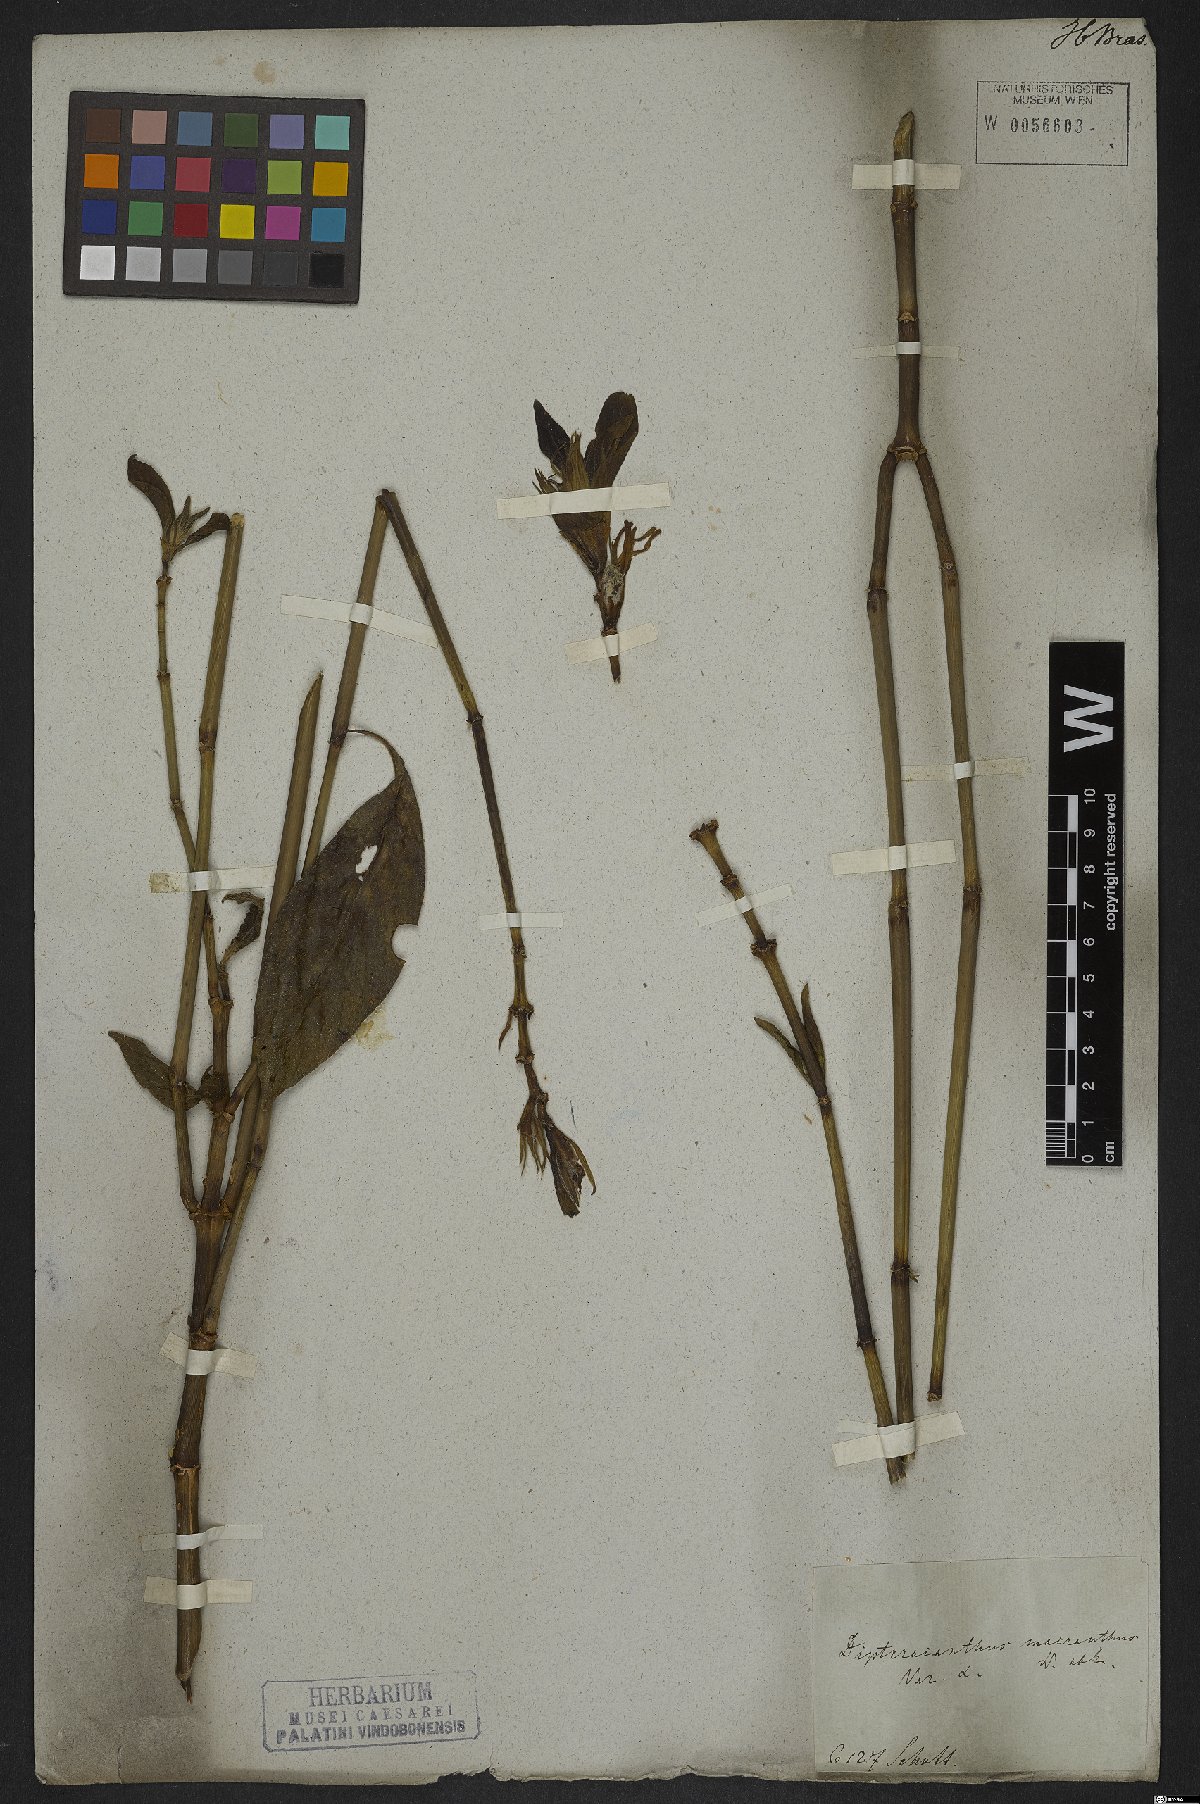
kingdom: Plantae
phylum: Tracheophyta
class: Magnoliopsida
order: Lamiales
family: Acanthaceae
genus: Ruellia
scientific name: Ruellia macrantha
